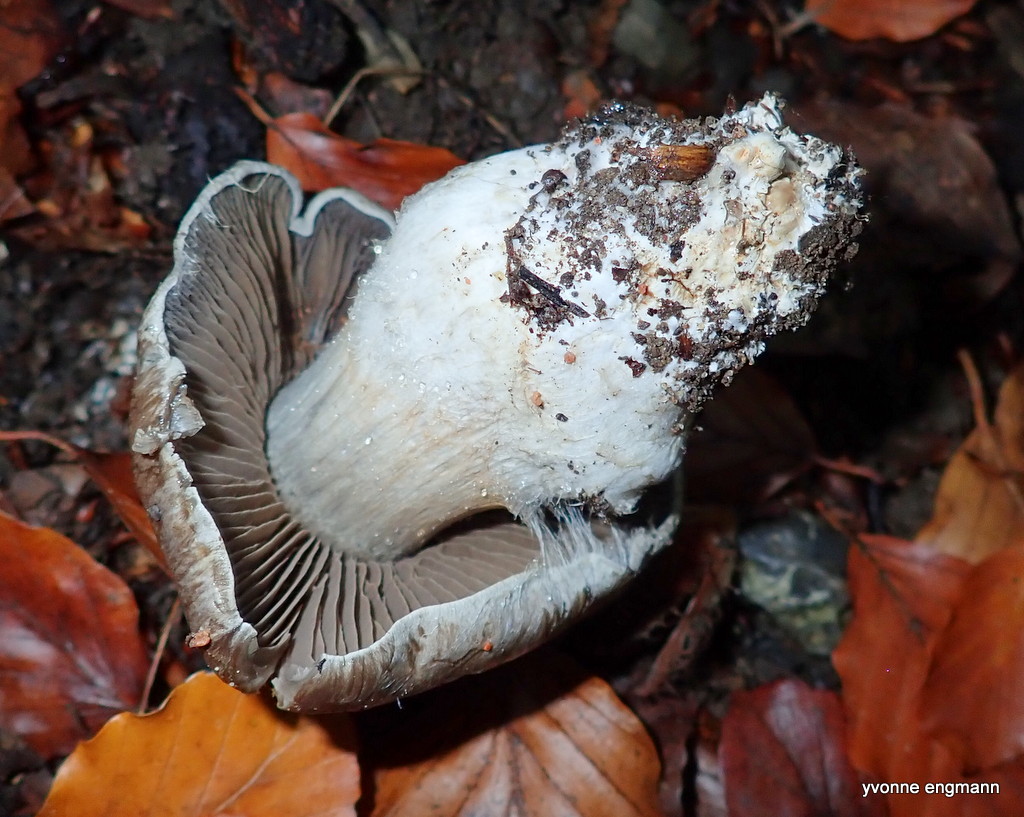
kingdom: Fungi
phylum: Basidiomycota
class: Agaricomycetes
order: Agaricales
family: Cortinariaceae
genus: Cortinarius
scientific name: Cortinarius
